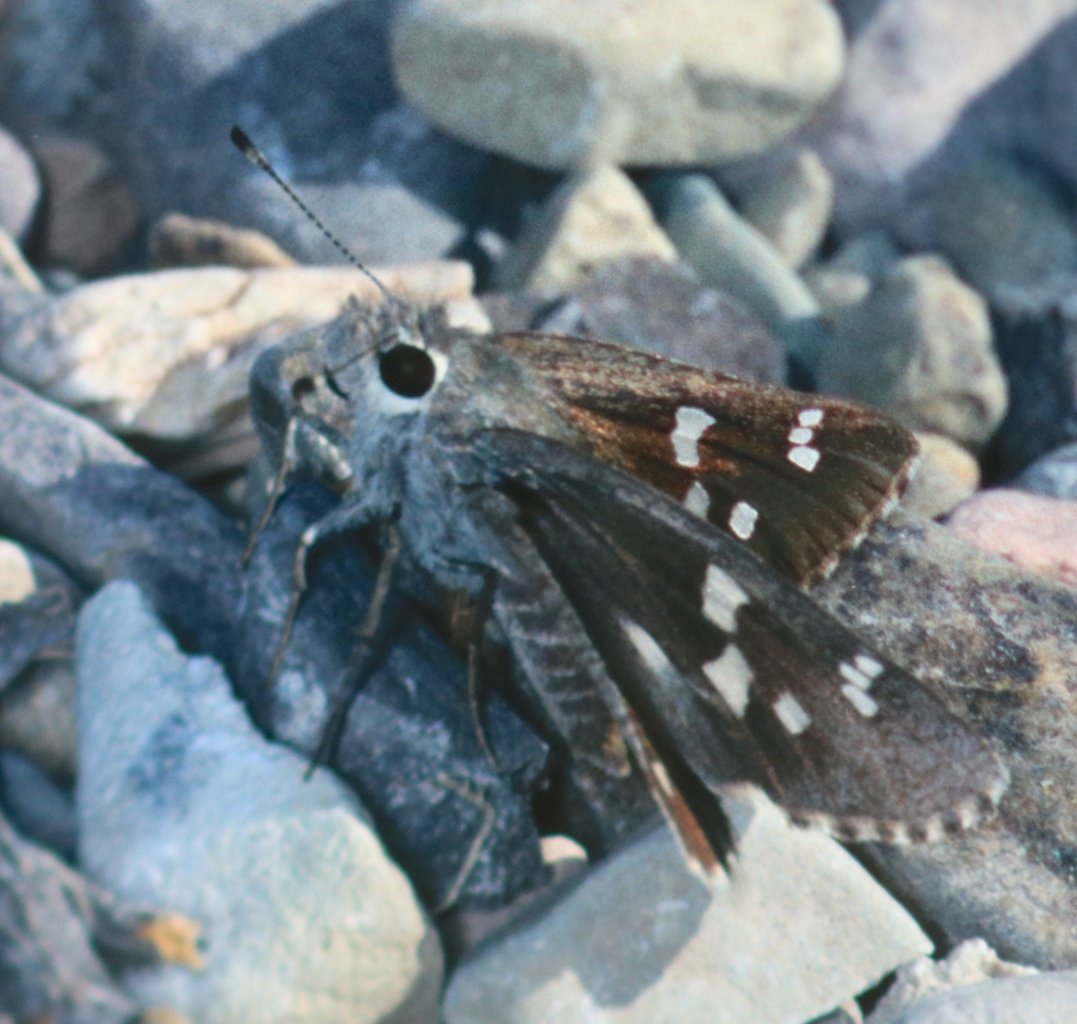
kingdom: Animalia
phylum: Arthropoda
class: Insecta
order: Lepidoptera
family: Hesperiidae
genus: Atrytonopsis
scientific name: Atrytonopsis ovinia
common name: Sheep Skipper
